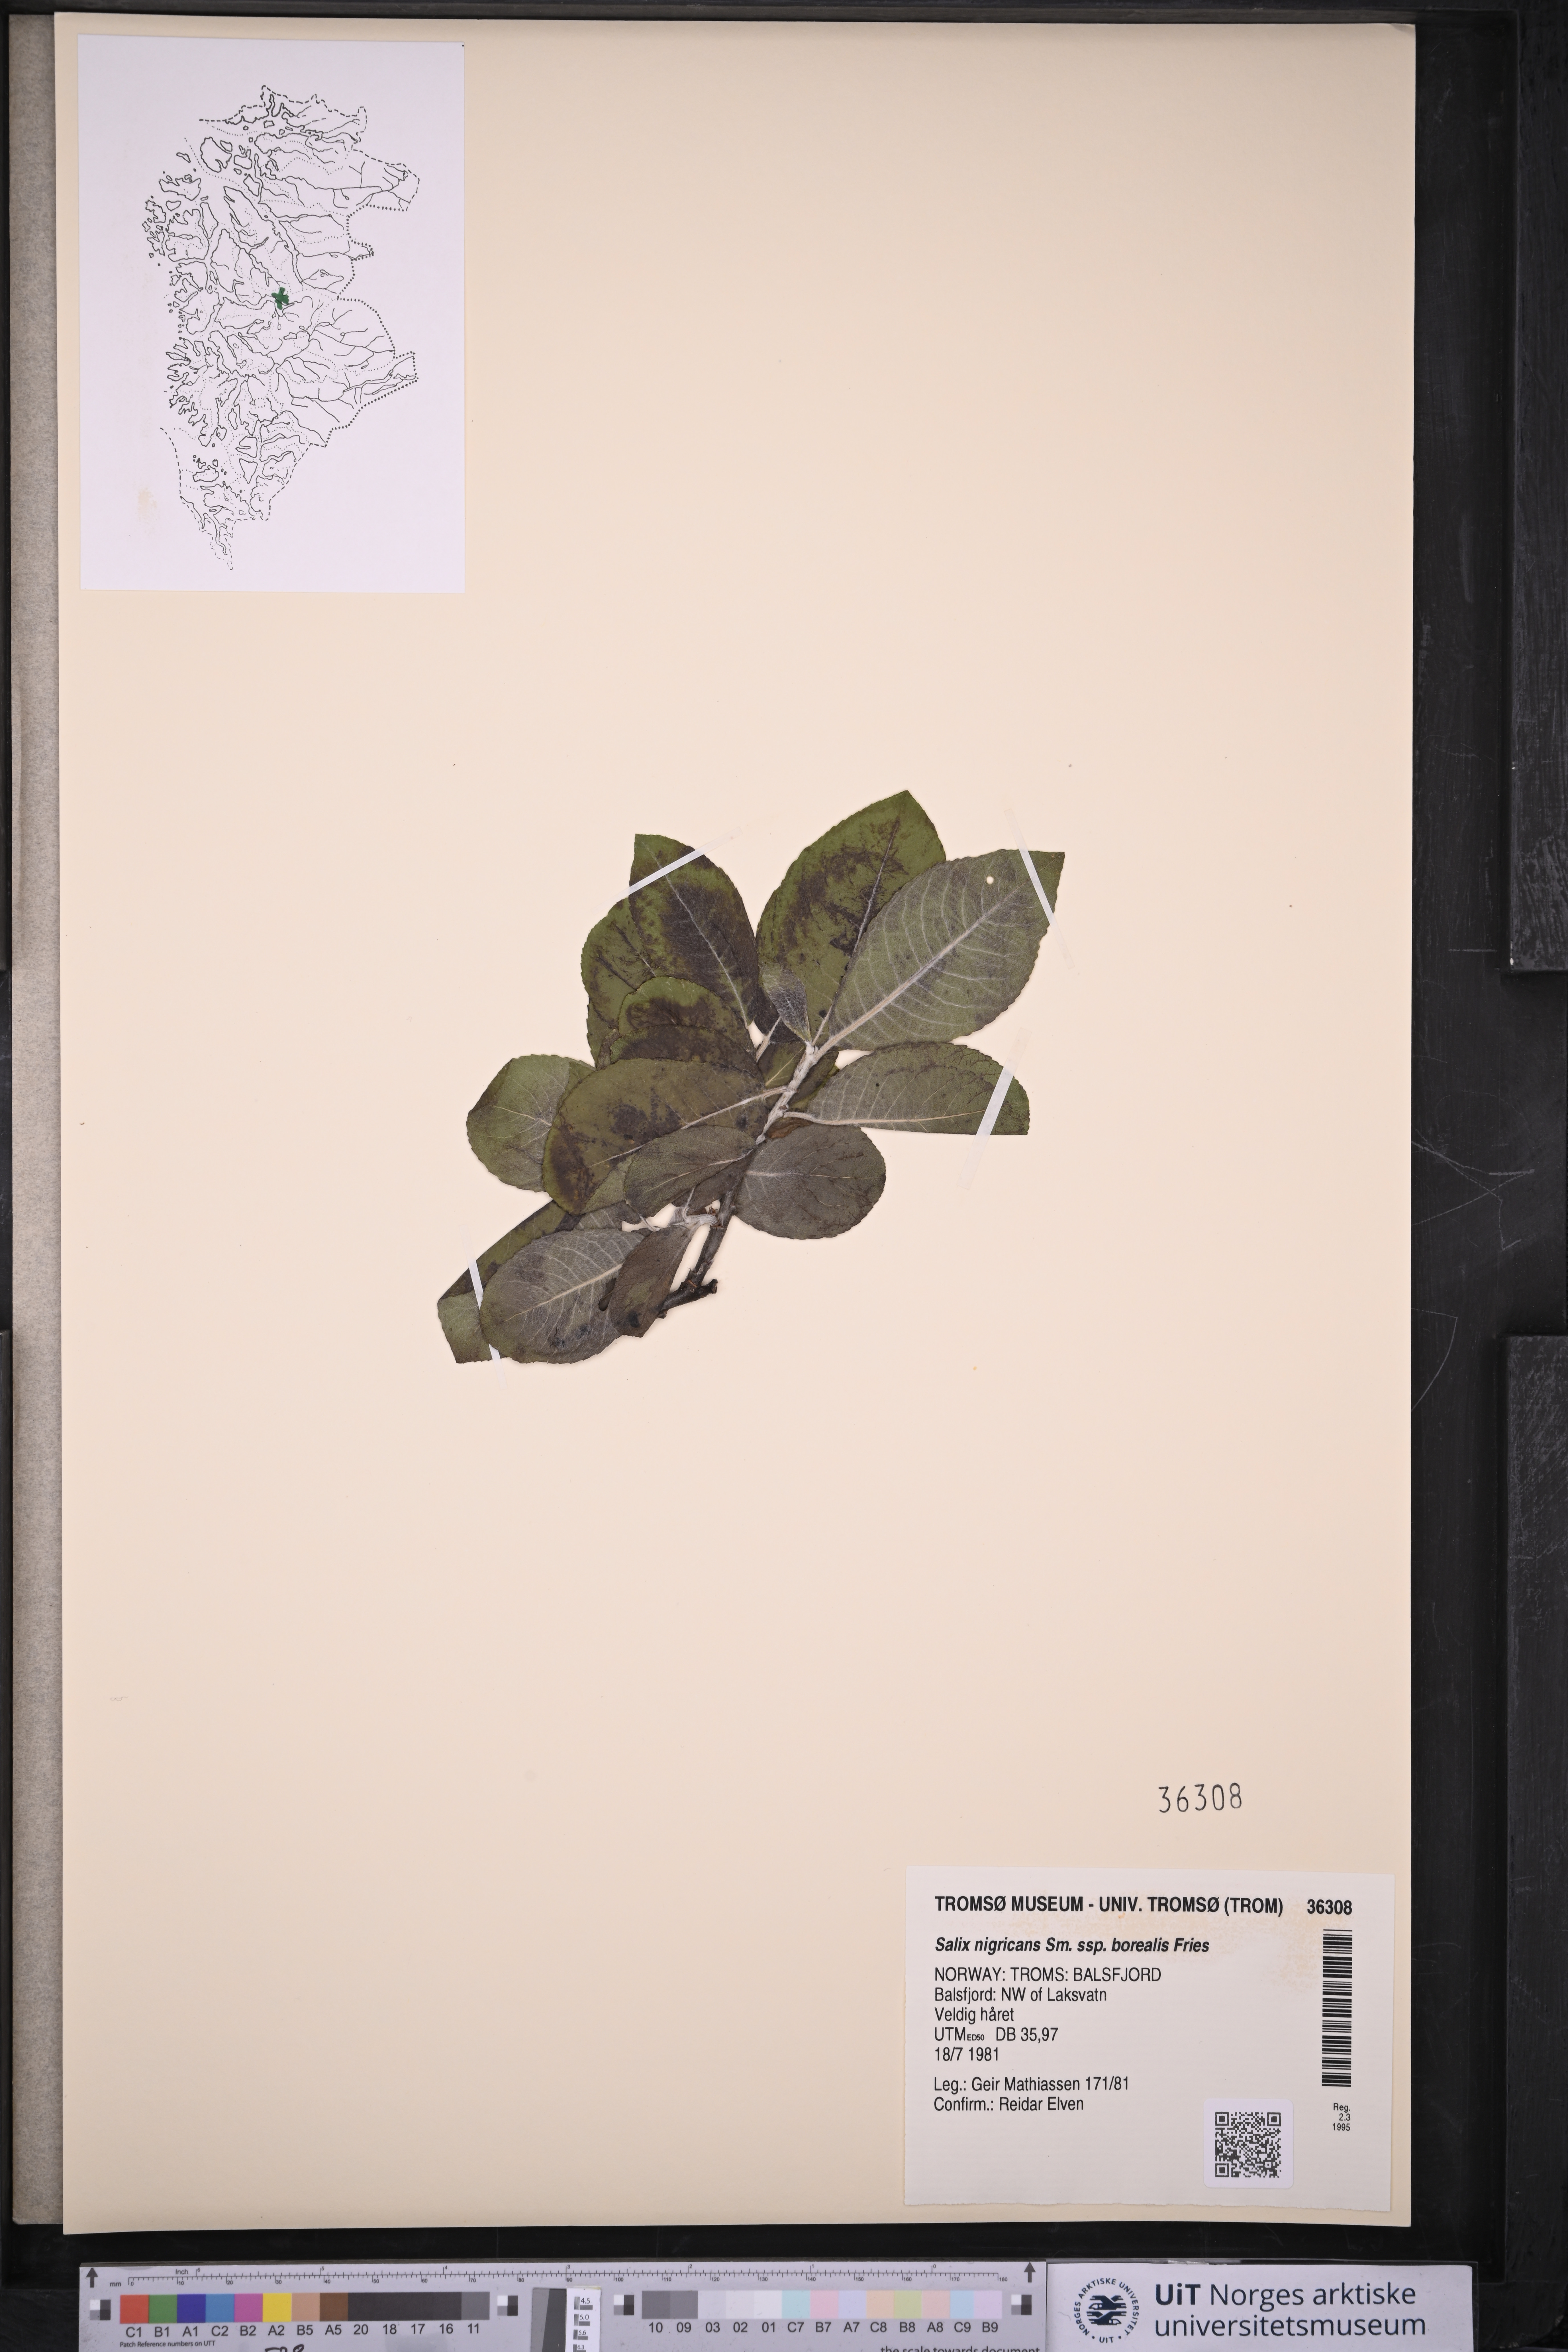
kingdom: Plantae
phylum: Tracheophyta
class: Magnoliopsida
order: Malpighiales
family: Salicaceae
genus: Salix
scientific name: Salix myrsinifolia
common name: Dark-leaved willow
